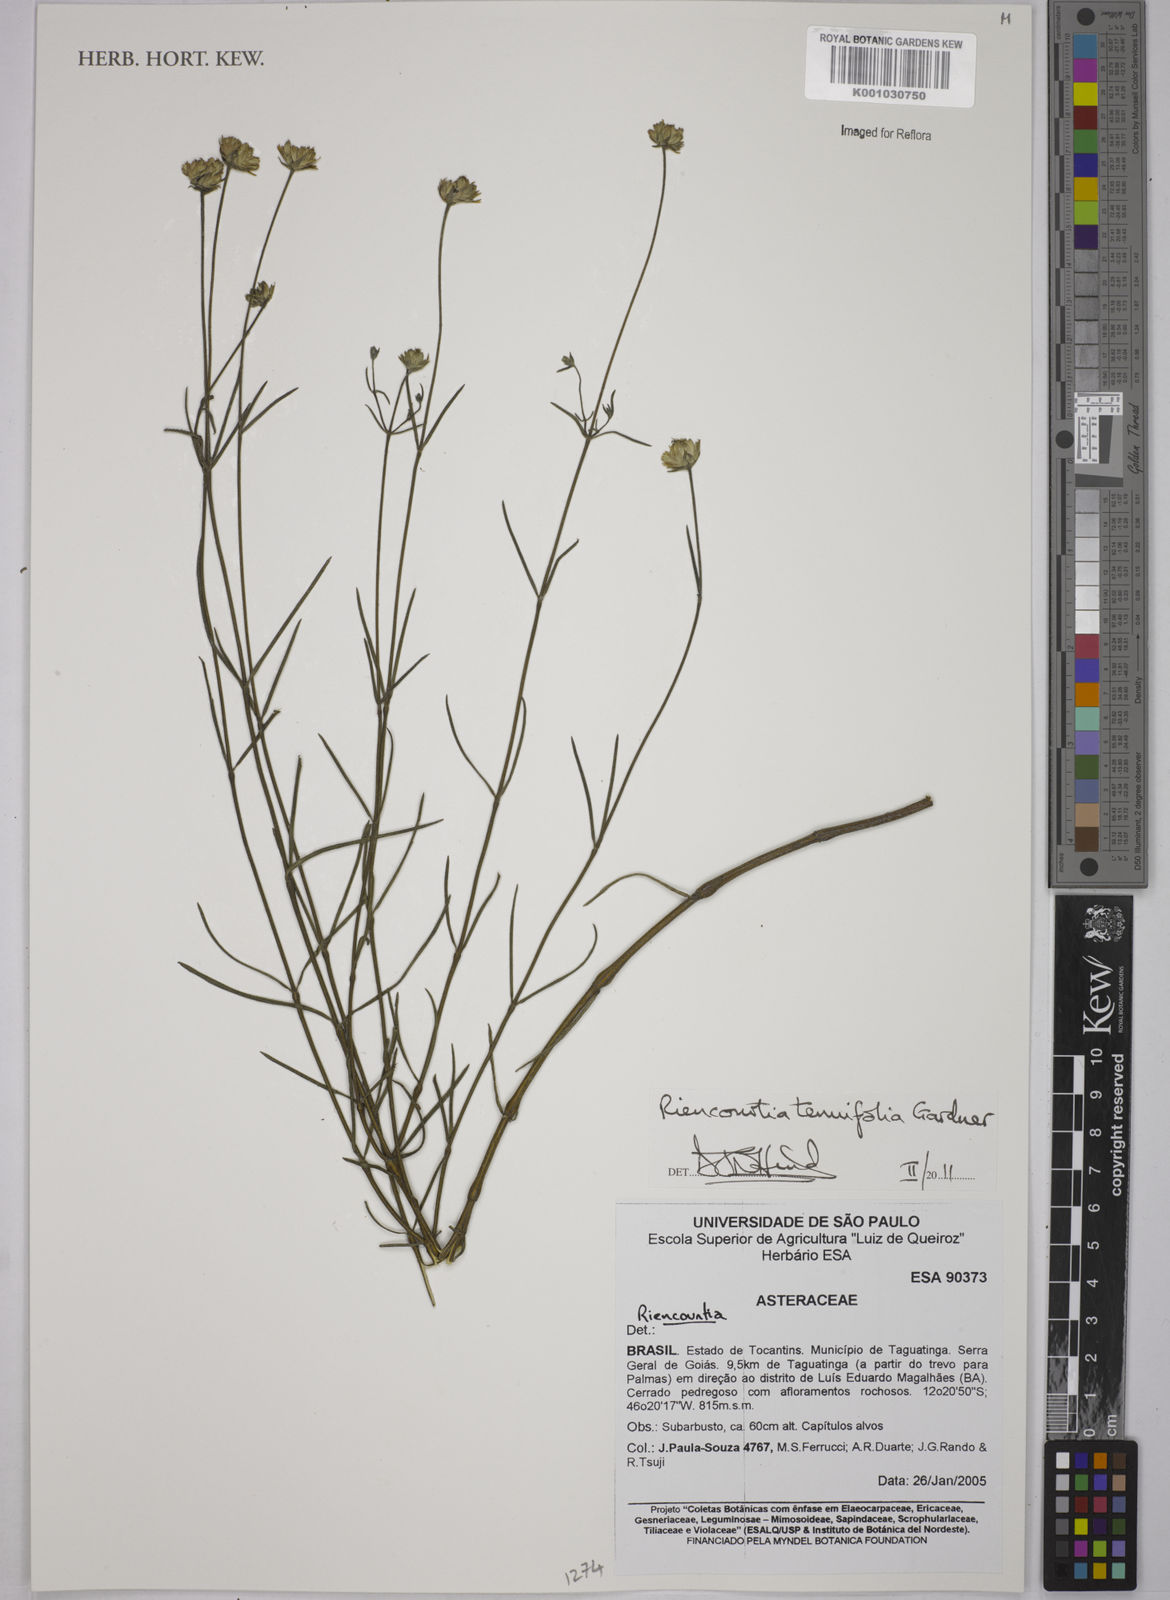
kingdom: Plantae
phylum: Tracheophyta
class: Magnoliopsida
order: Asterales
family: Asteraceae
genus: Riencourtia
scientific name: Riencourtia tenuifolia
